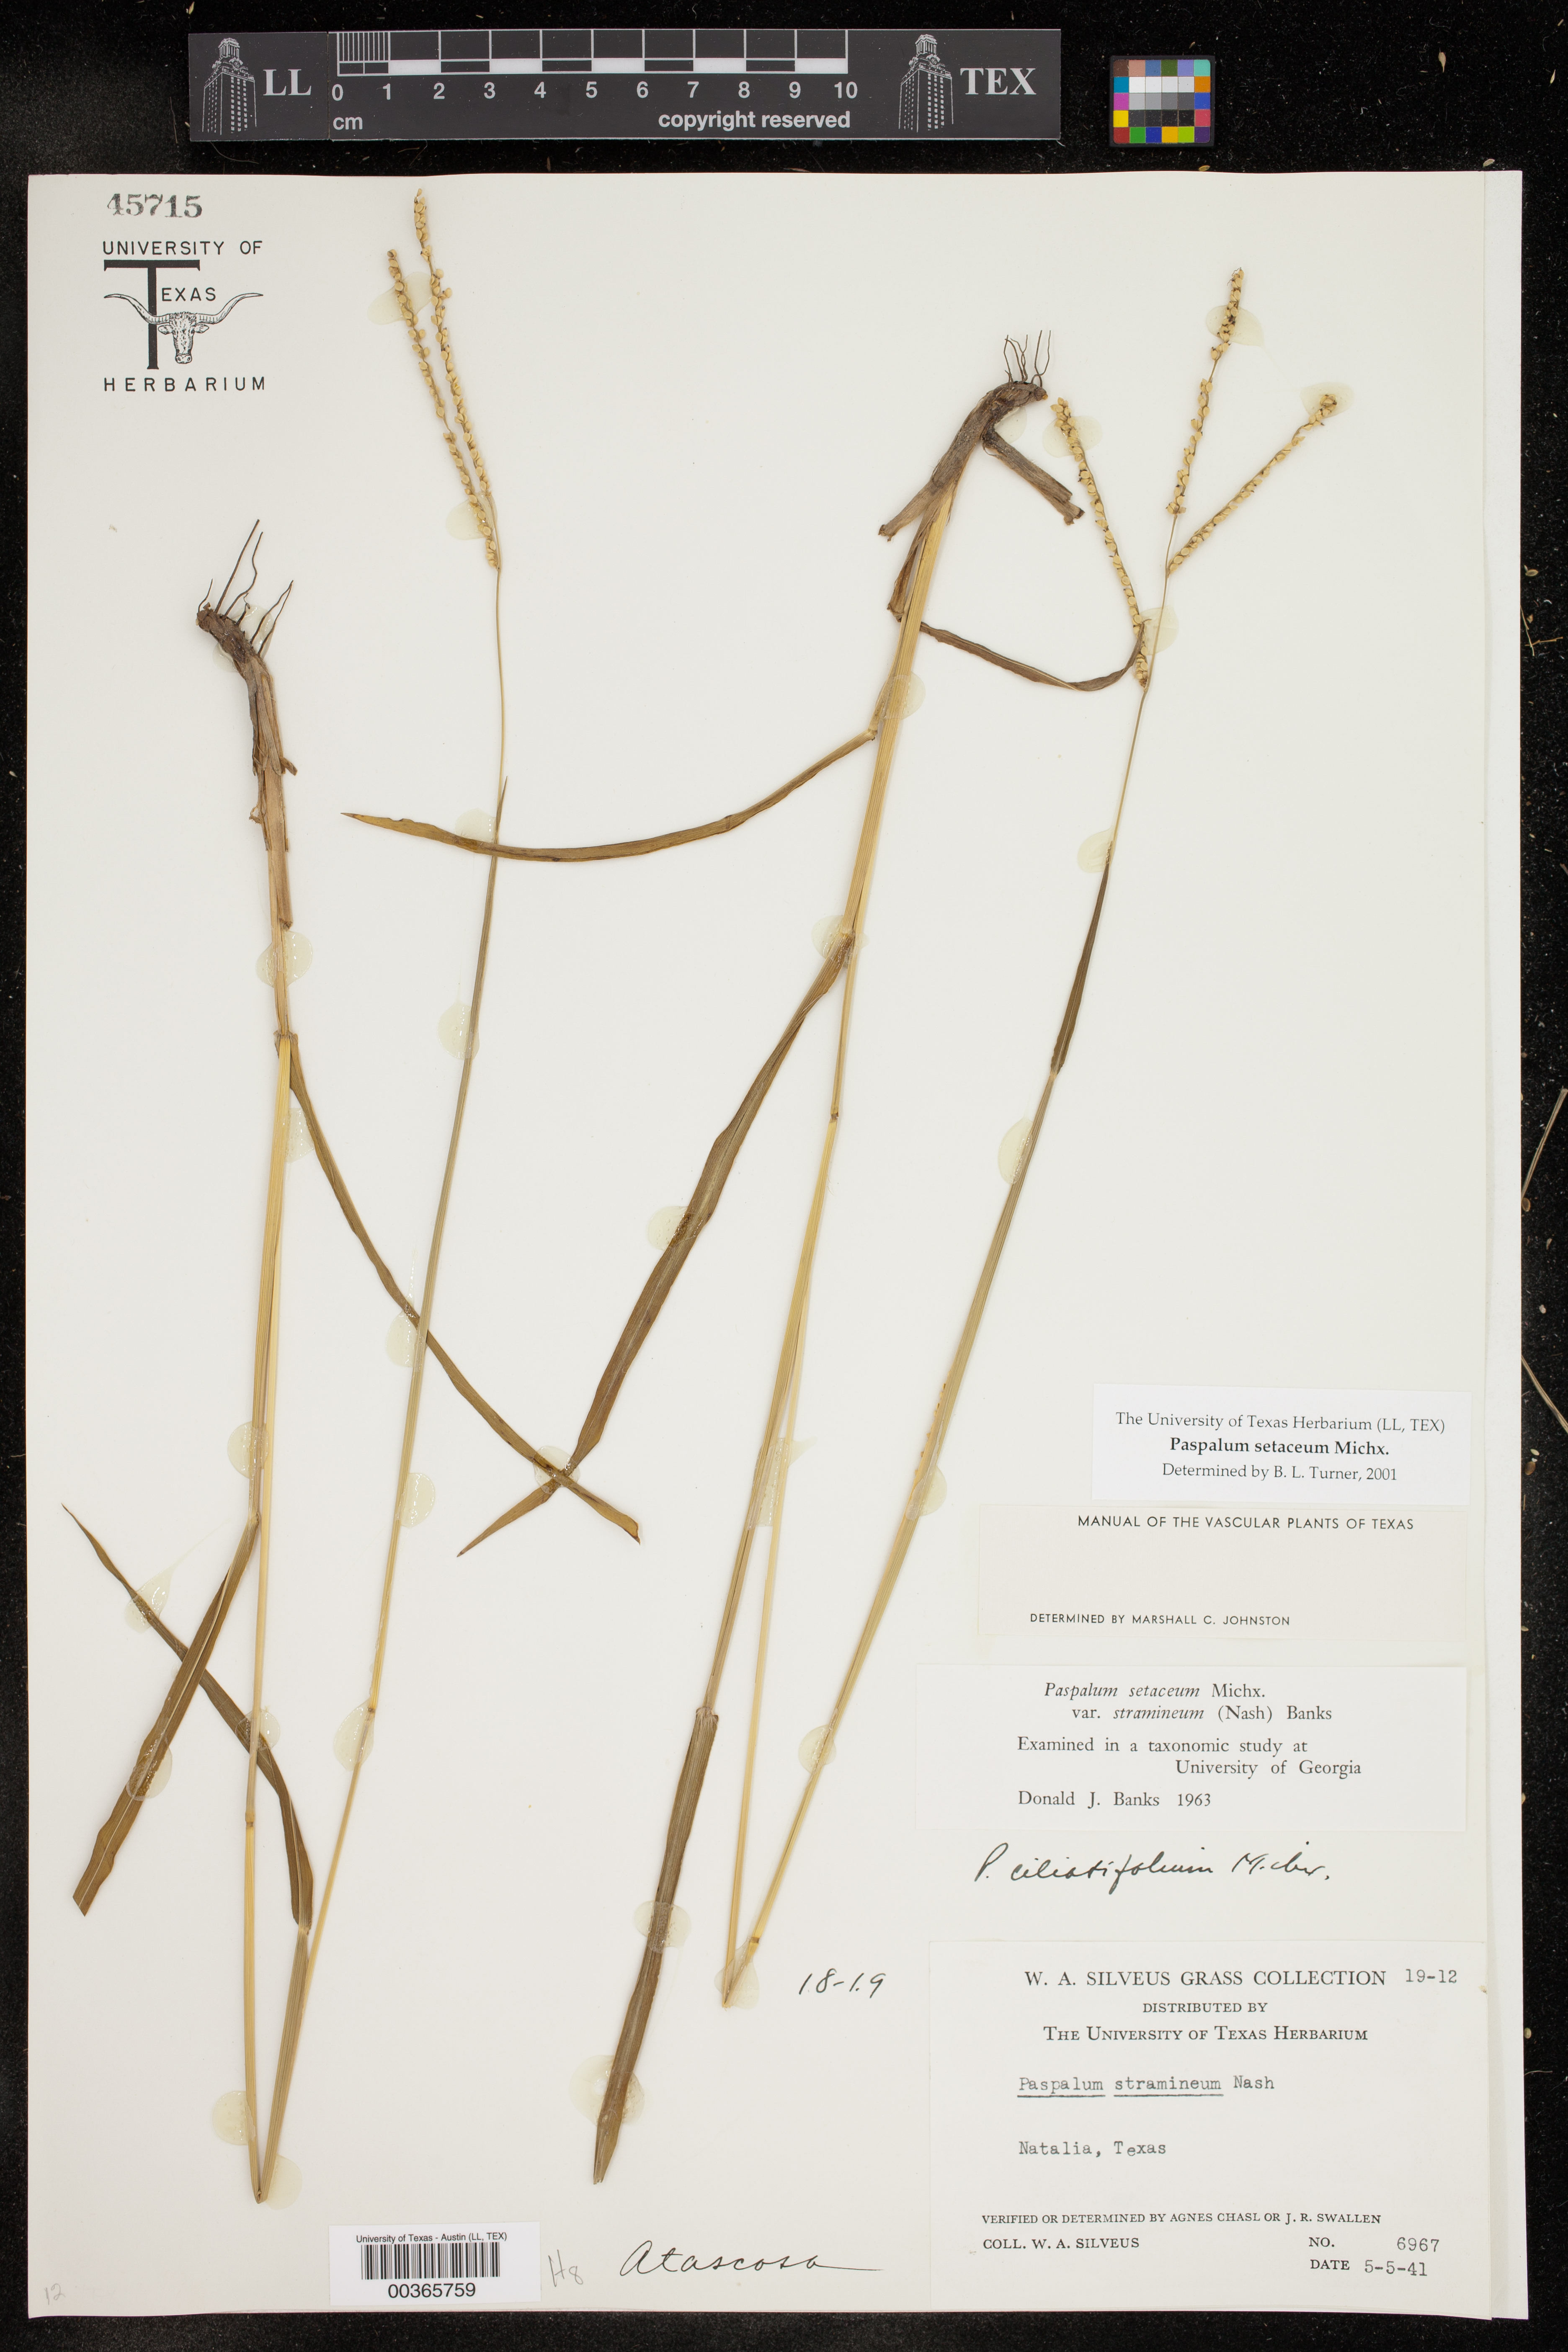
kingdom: Plantae
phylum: Tracheophyta
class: Liliopsida
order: Poales
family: Poaceae
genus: Paspalum
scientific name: Paspalum setaceum
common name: Slender paspalum
